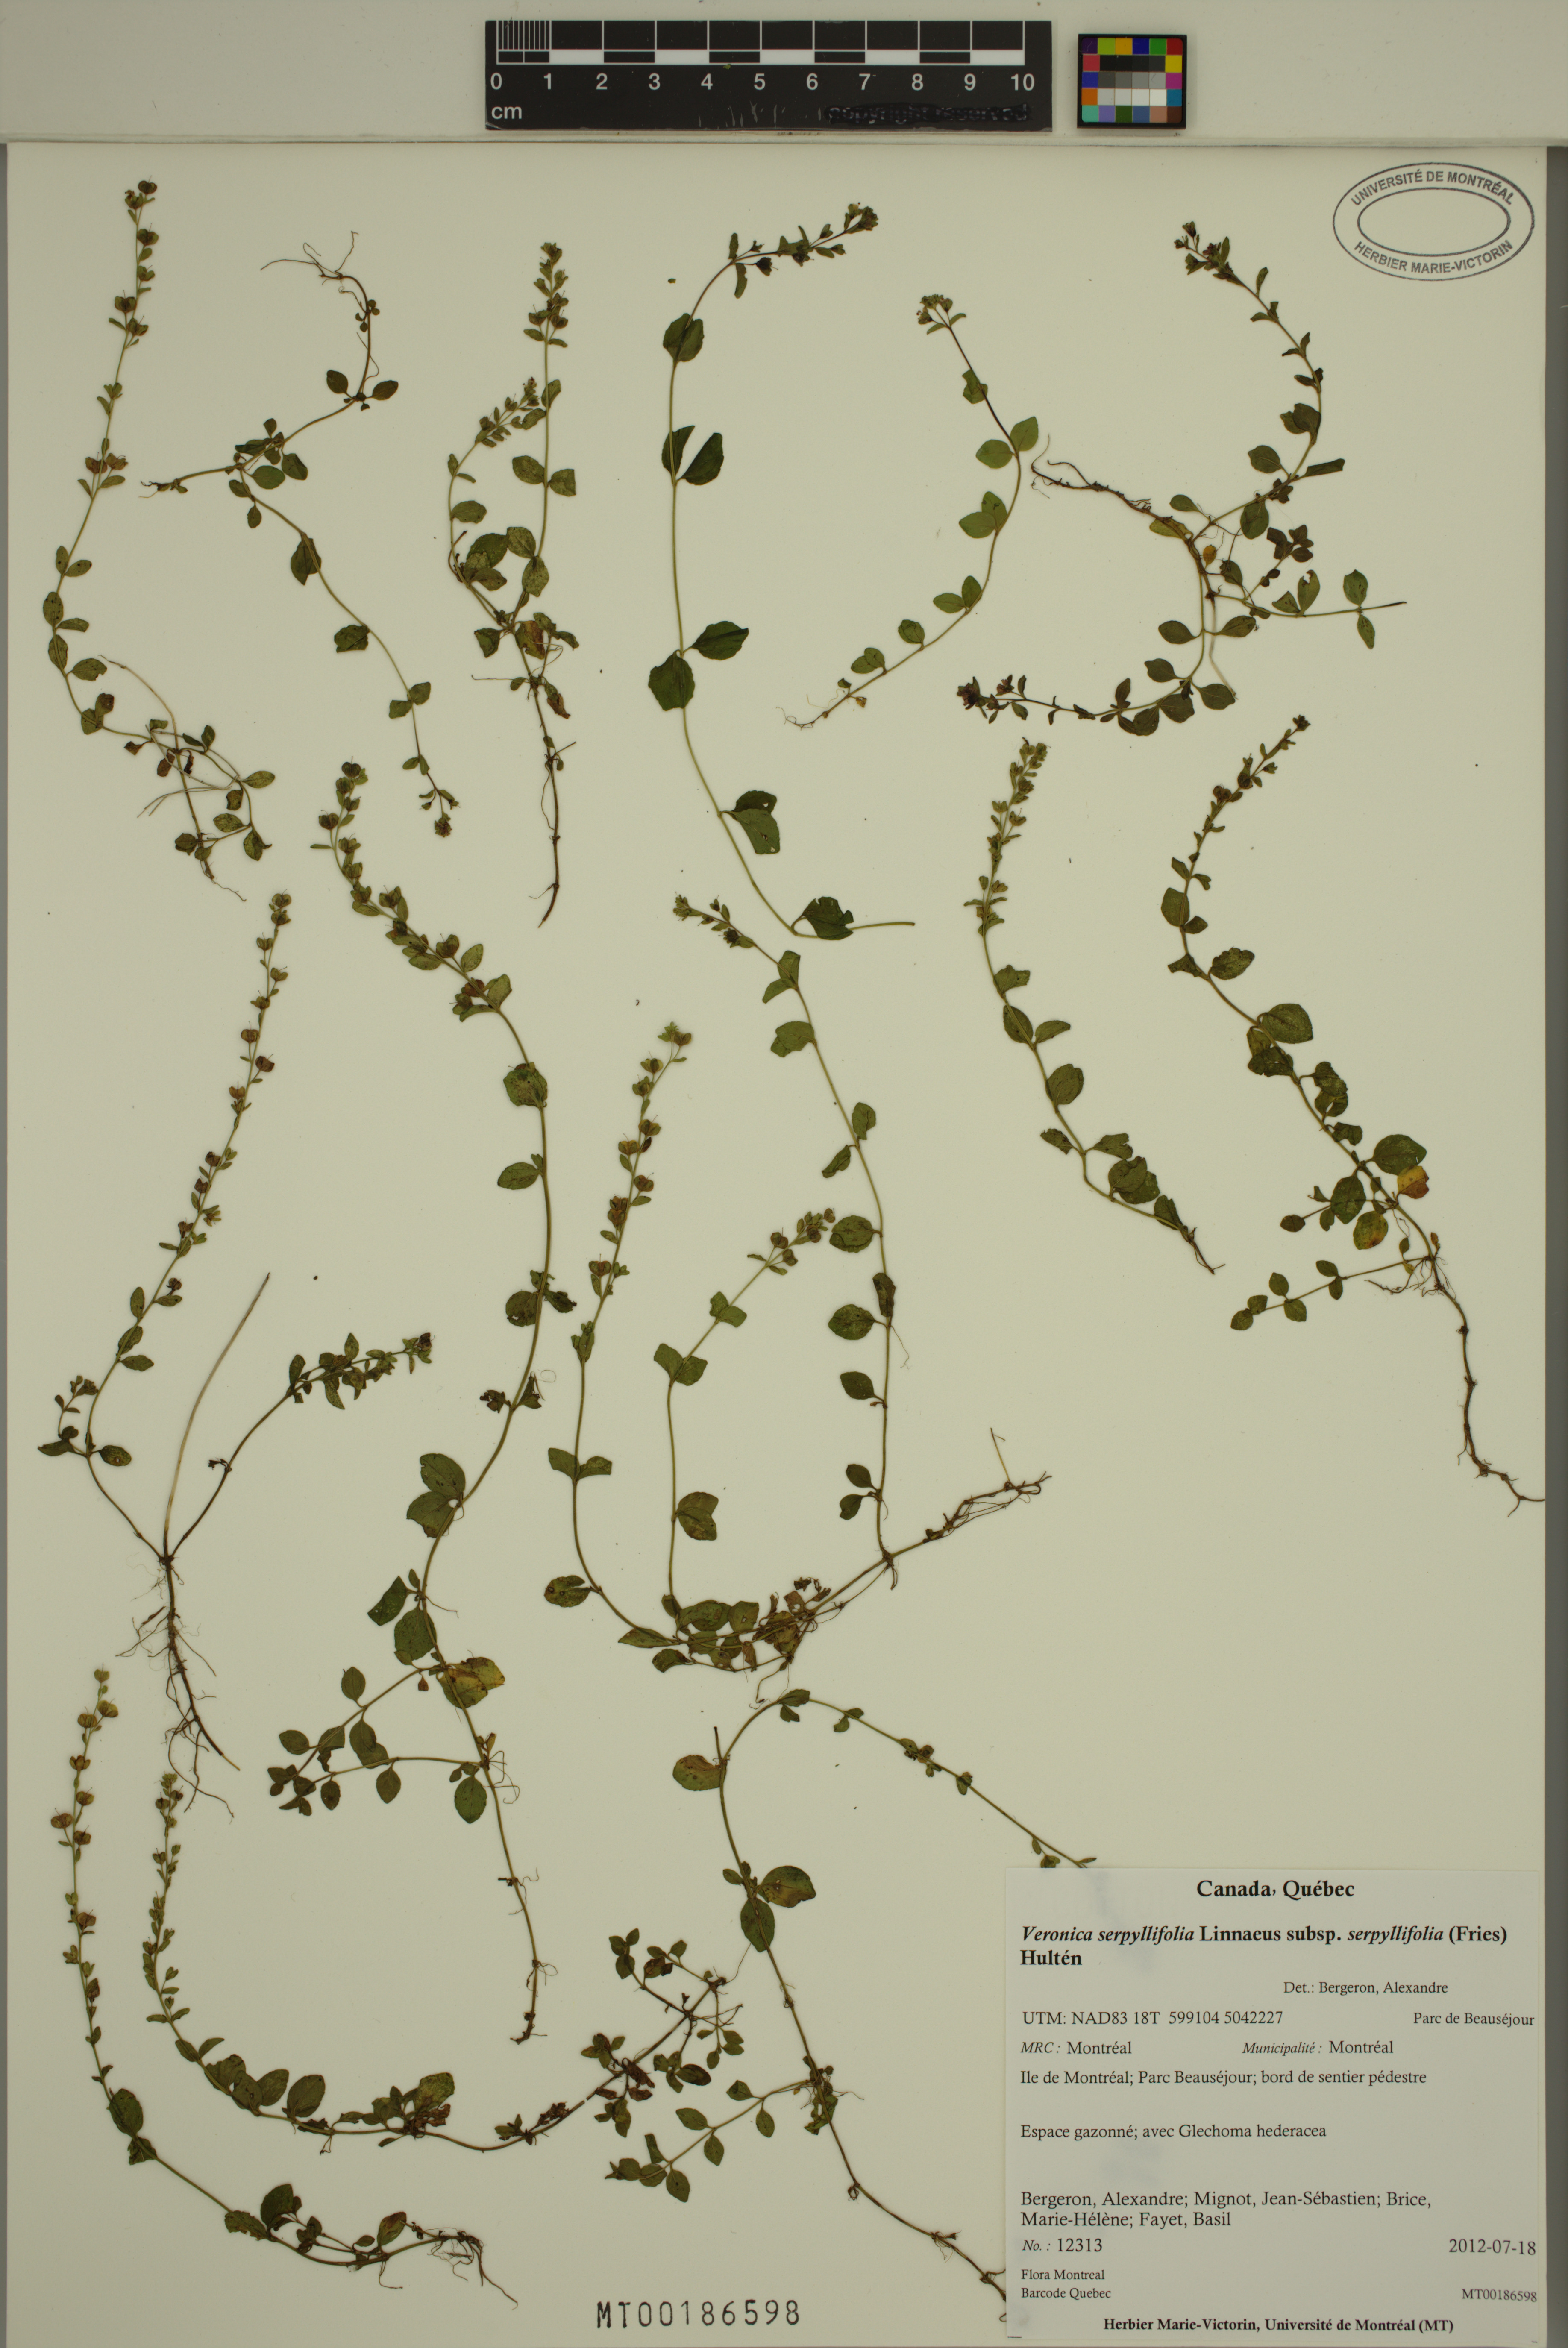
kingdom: Plantae
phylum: Tracheophyta
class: Magnoliopsida
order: Lamiales
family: Plantaginaceae
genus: Veronica
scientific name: Veronica serpyllifolia
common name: Thyme-leaved speedwell
